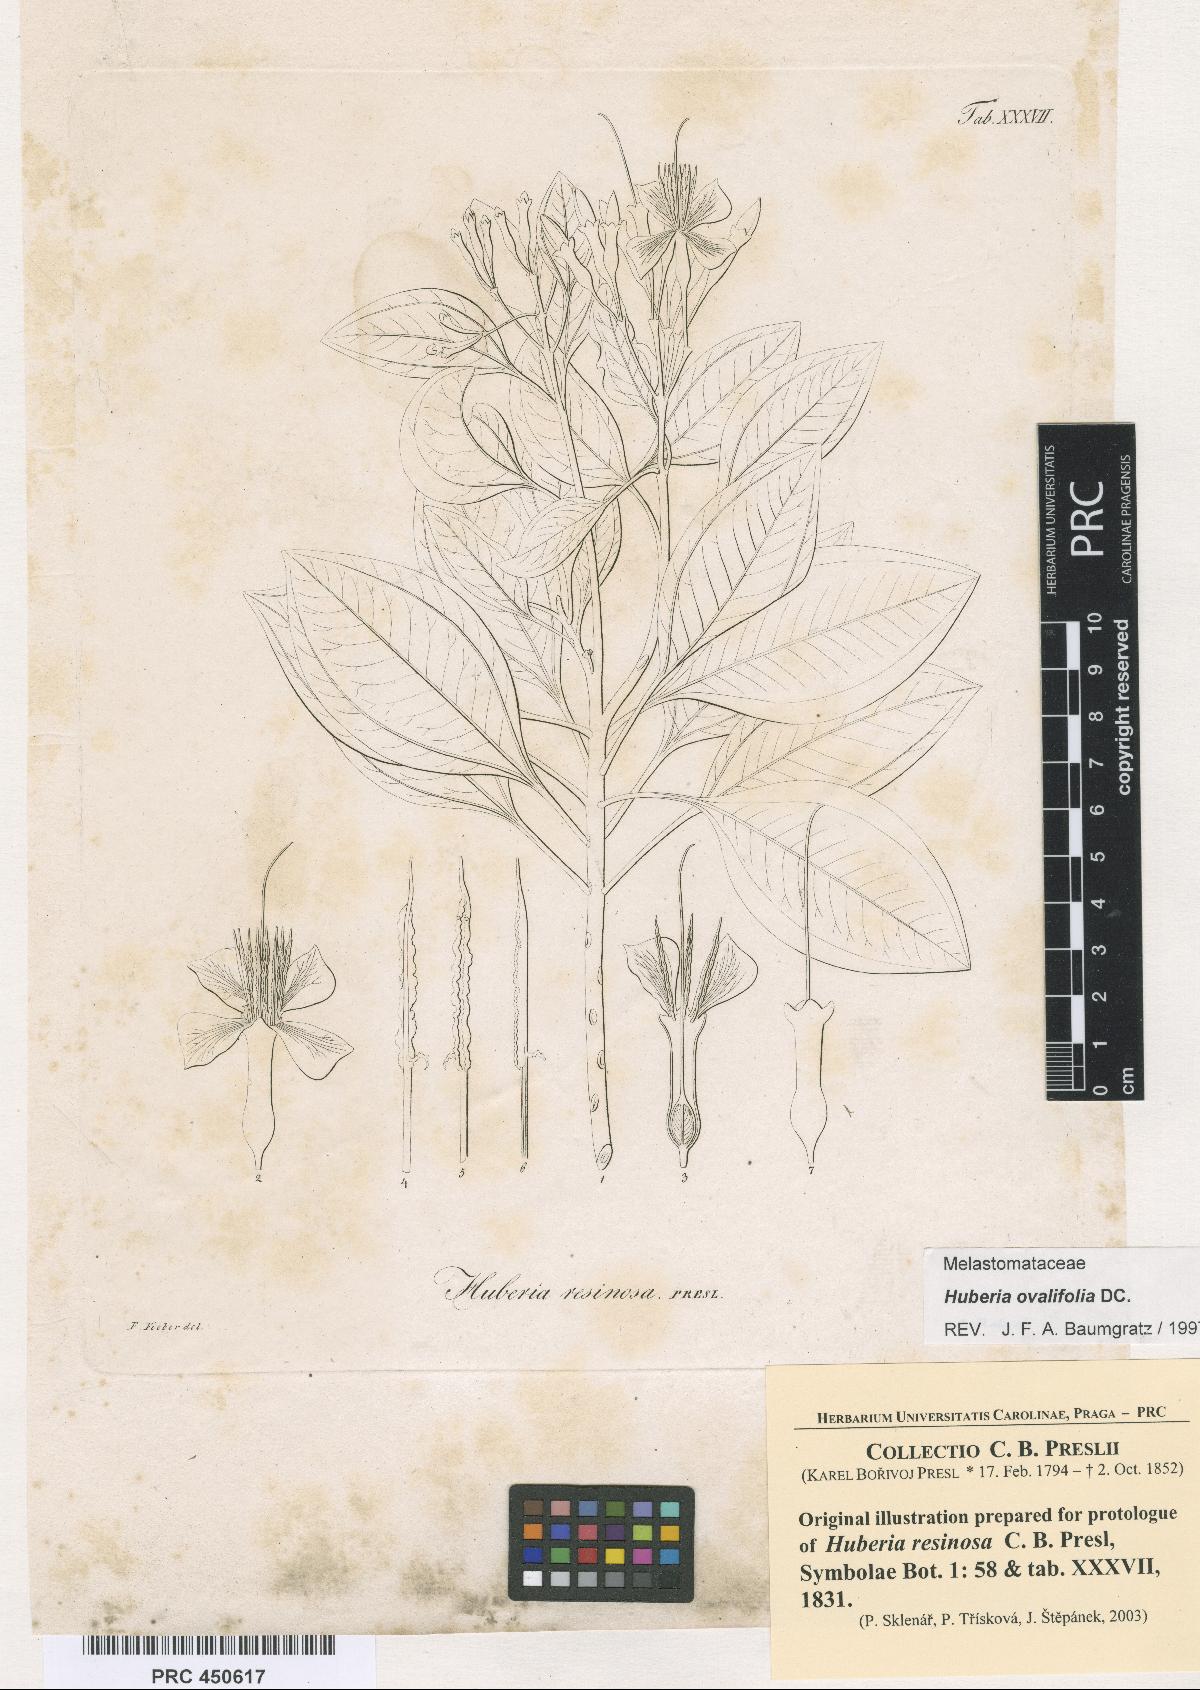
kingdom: Plantae
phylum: Tracheophyta
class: Magnoliopsida
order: Myrtales
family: Melastomataceae
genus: Huberia
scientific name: Huberia ovalifolia
